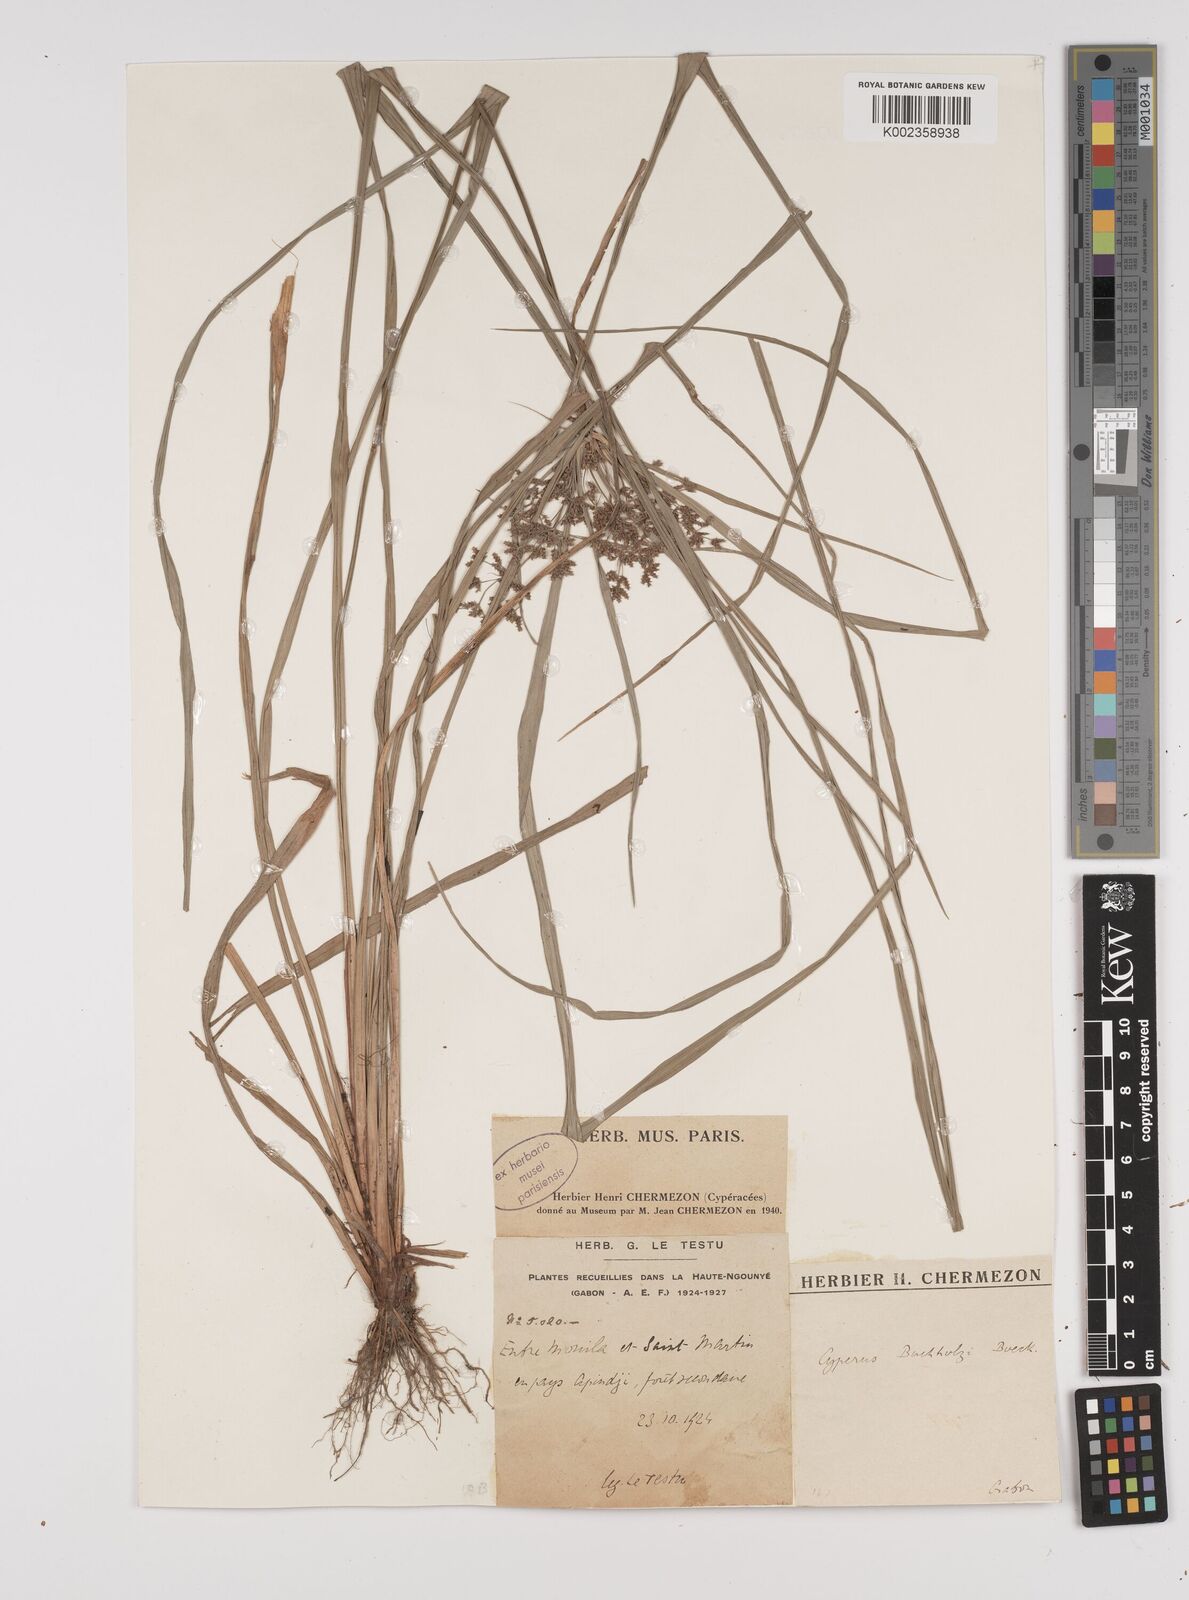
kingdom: Plantae
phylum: Tracheophyta
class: Liliopsida
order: Poales
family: Cyperaceae
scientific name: Cyperaceae
